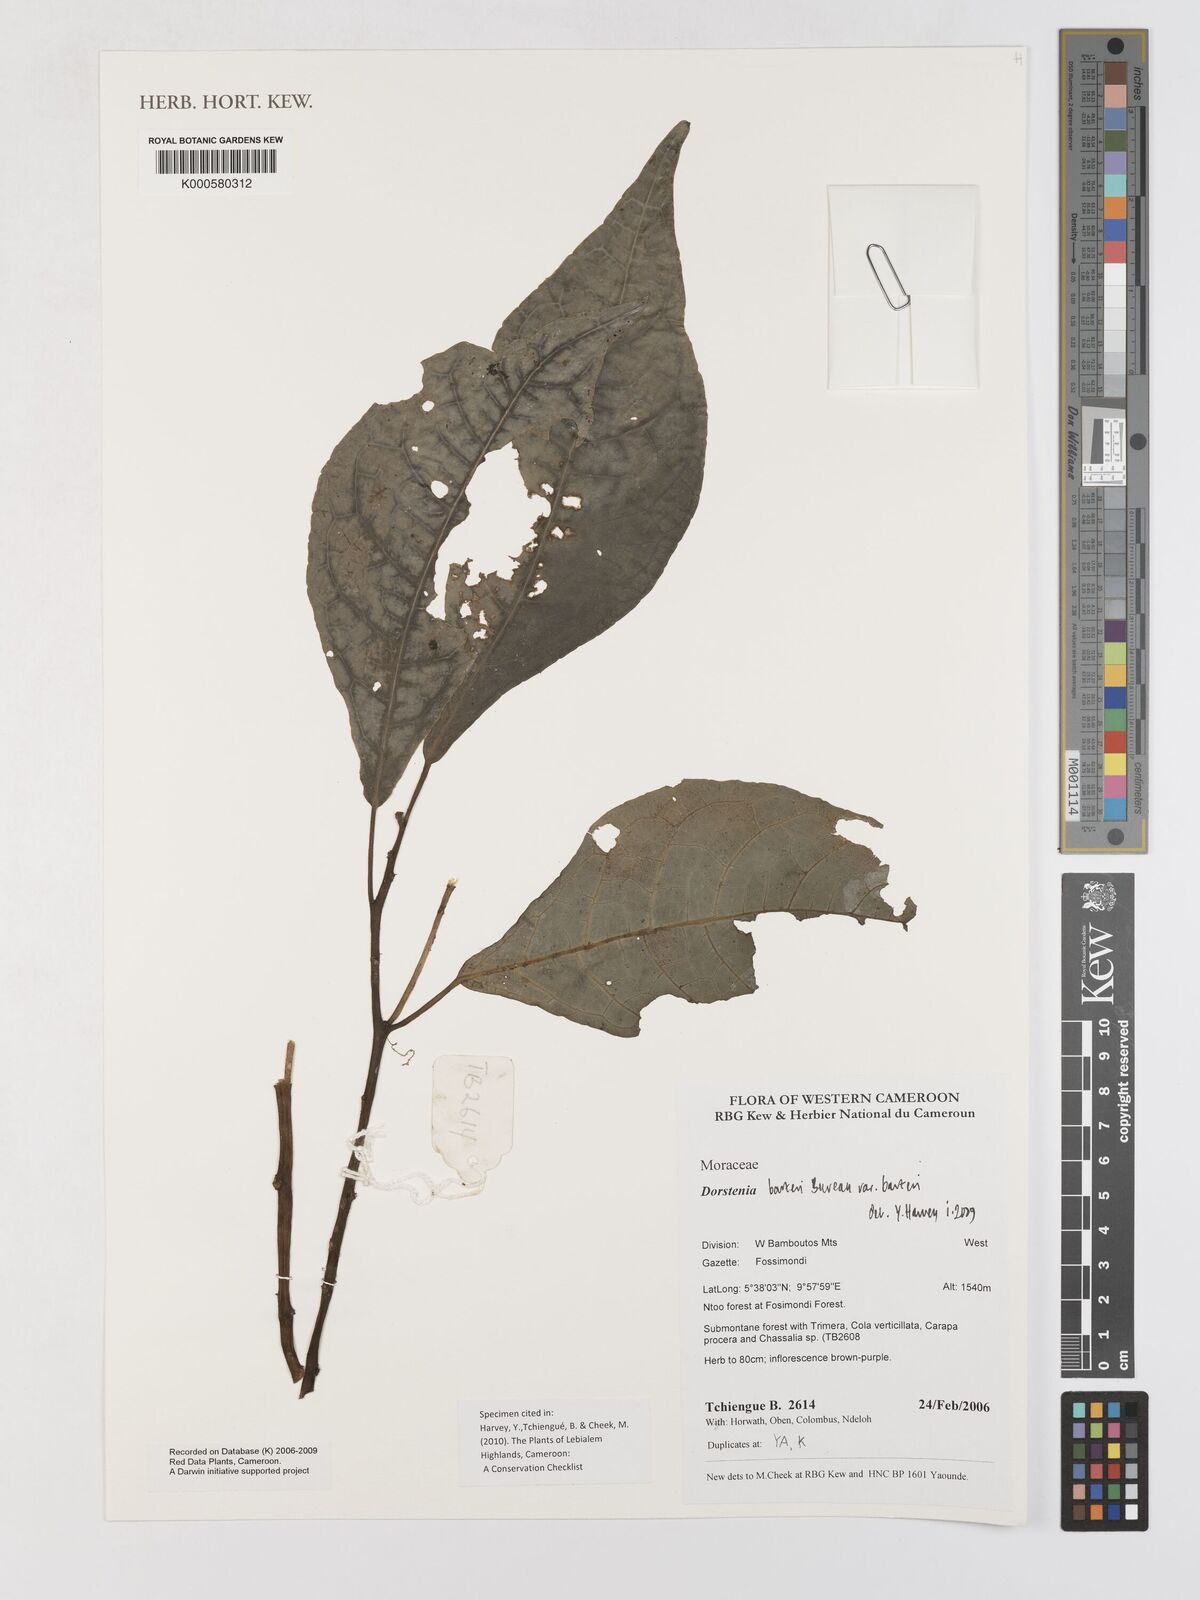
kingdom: Plantae
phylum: Tracheophyta
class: Magnoliopsida
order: Rosales
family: Moraceae
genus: Dorstenia
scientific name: Dorstenia barteri
